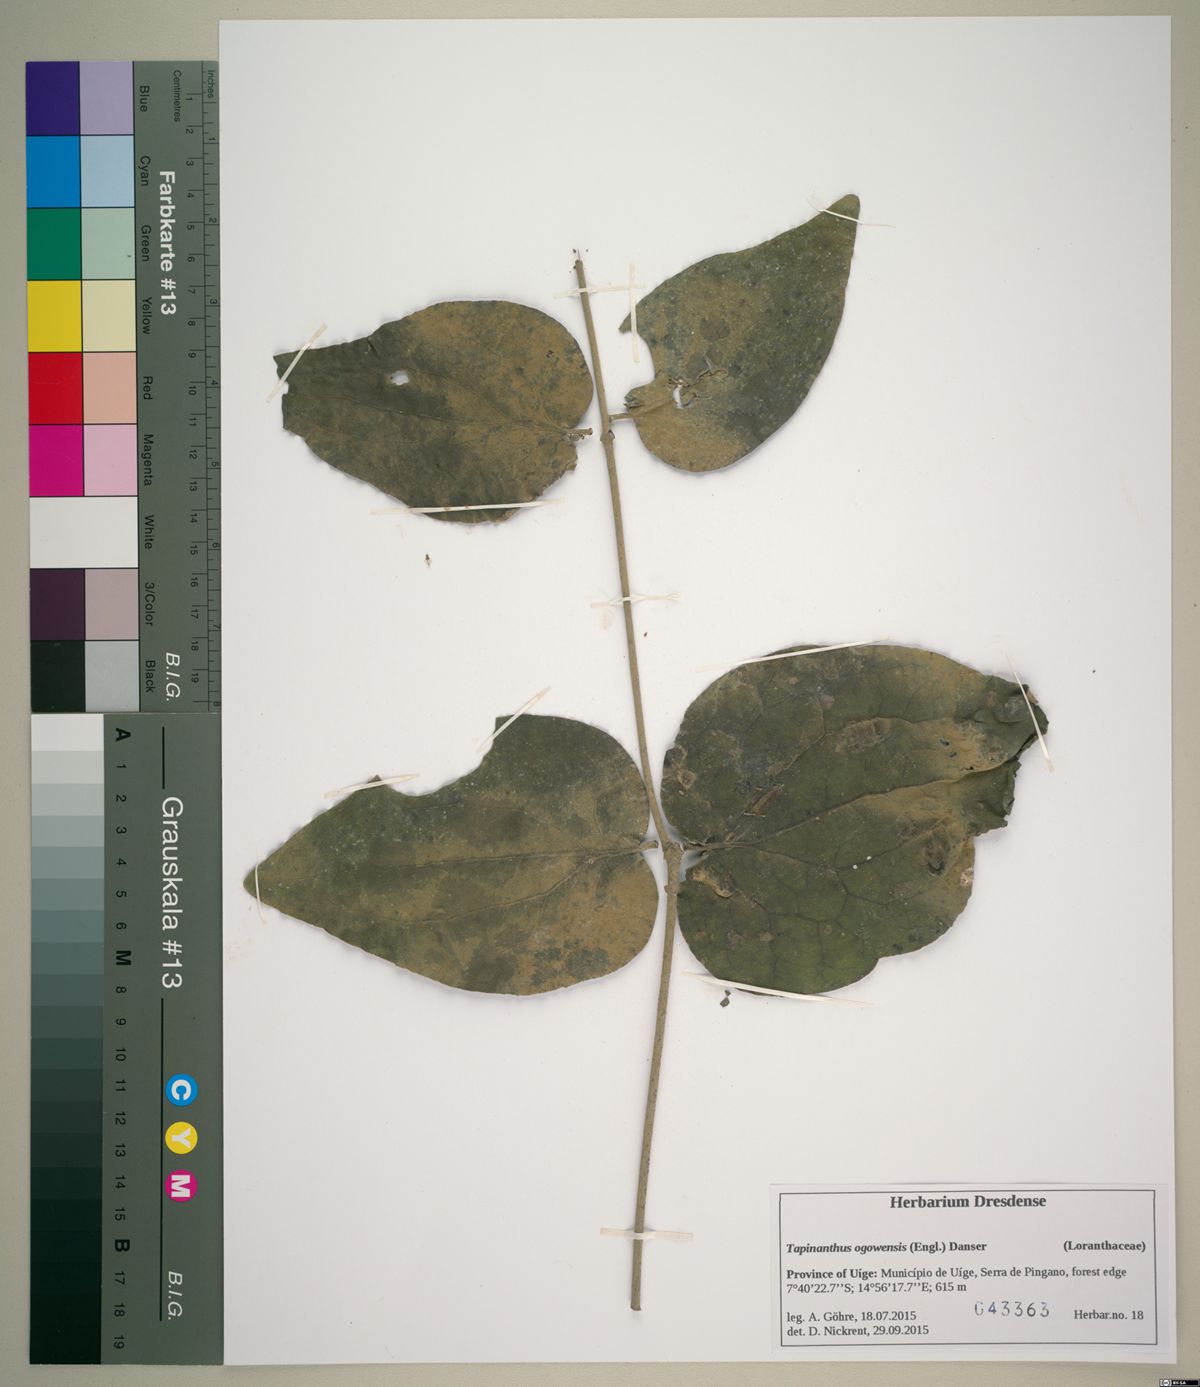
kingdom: Plantae
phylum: Tracheophyta
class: Magnoliopsida
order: Santalales
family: Loranthaceae
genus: Tapinanthus
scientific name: Tapinanthus ogowensis
